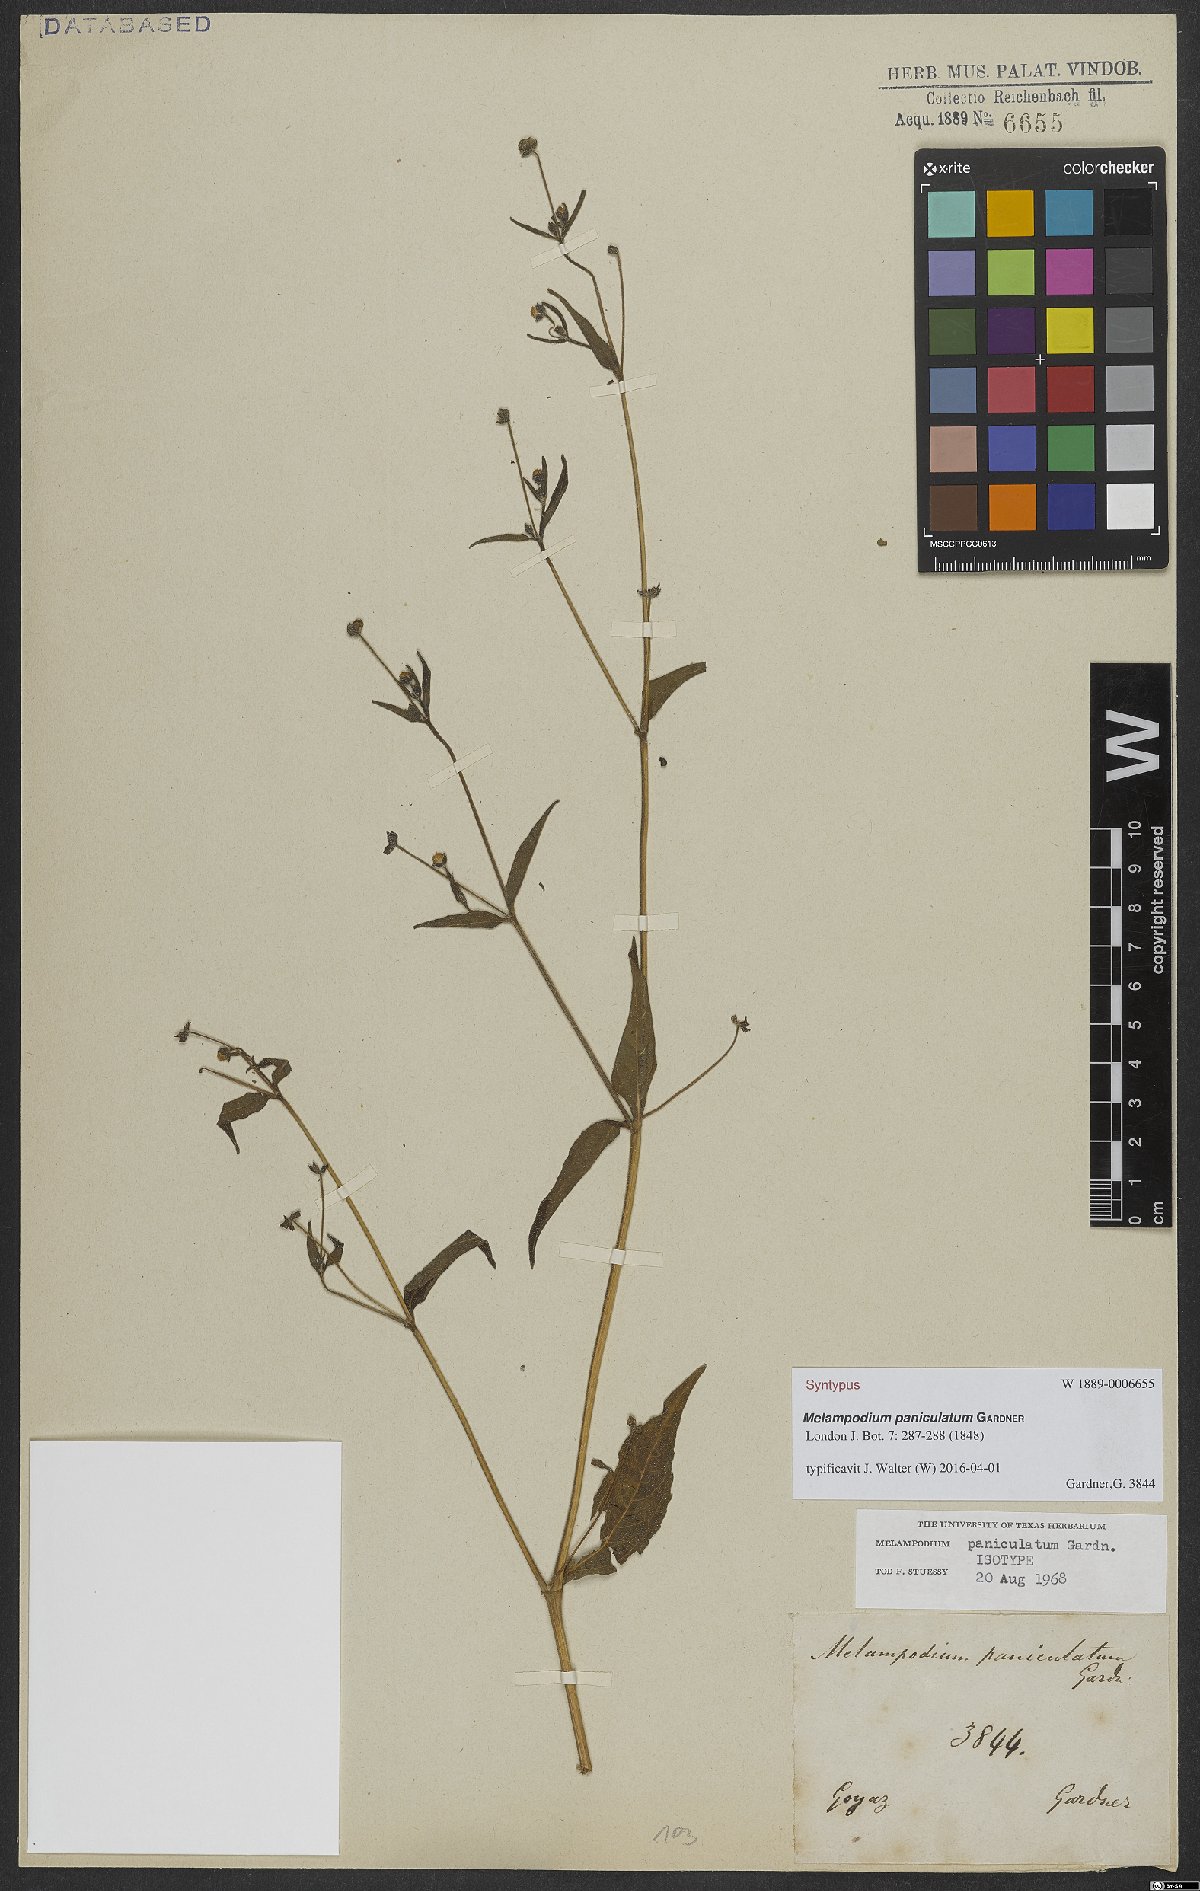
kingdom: Plantae
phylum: Tracheophyta
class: Magnoliopsida
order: Asterales
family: Asteraceae
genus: Melampodium
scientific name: Melampodium paniculatum
